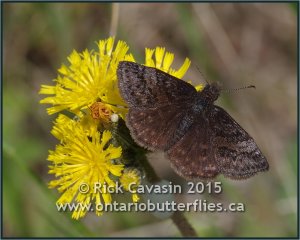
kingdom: Animalia
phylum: Arthropoda
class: Insecta
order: Lepidoptera
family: Hesperiidae
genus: Erynnis
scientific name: Erynnis icelus
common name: Dreamy Duskywing
